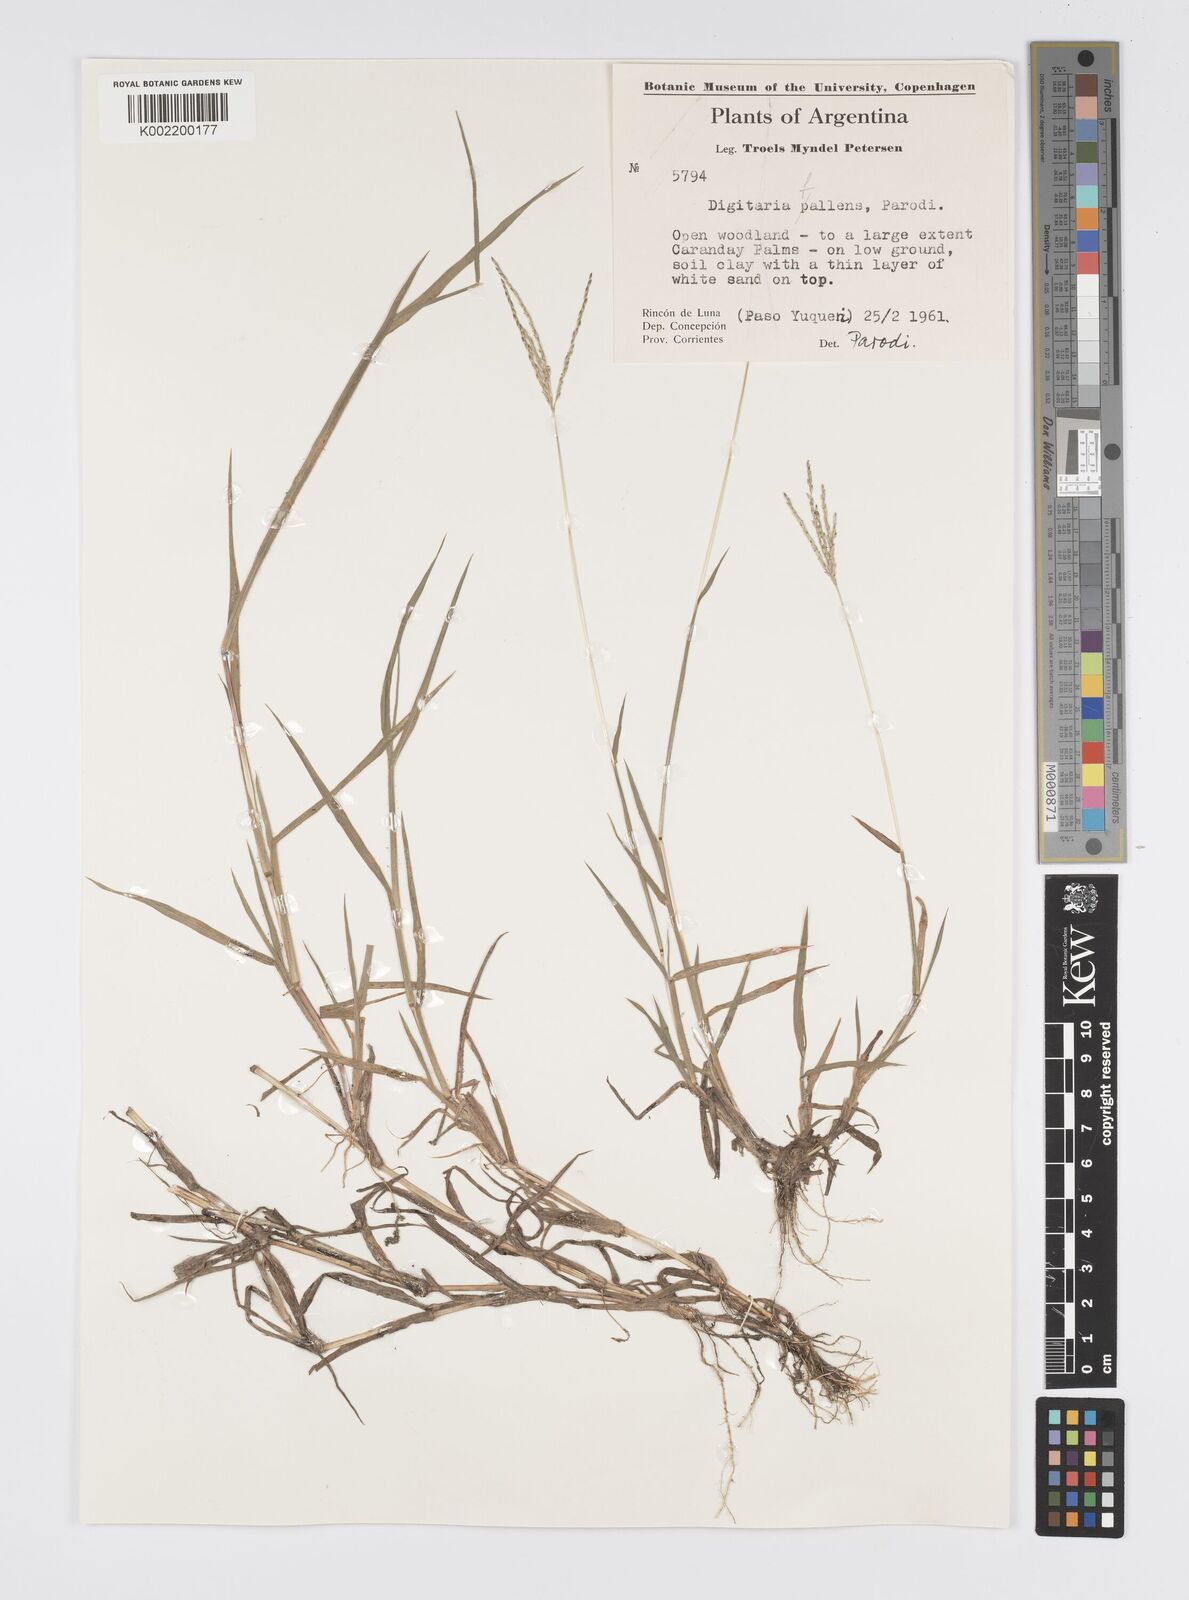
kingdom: Plantae
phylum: Tracheophyta
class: Liliopsida
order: Poales
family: Poaceae
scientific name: Poaceae
